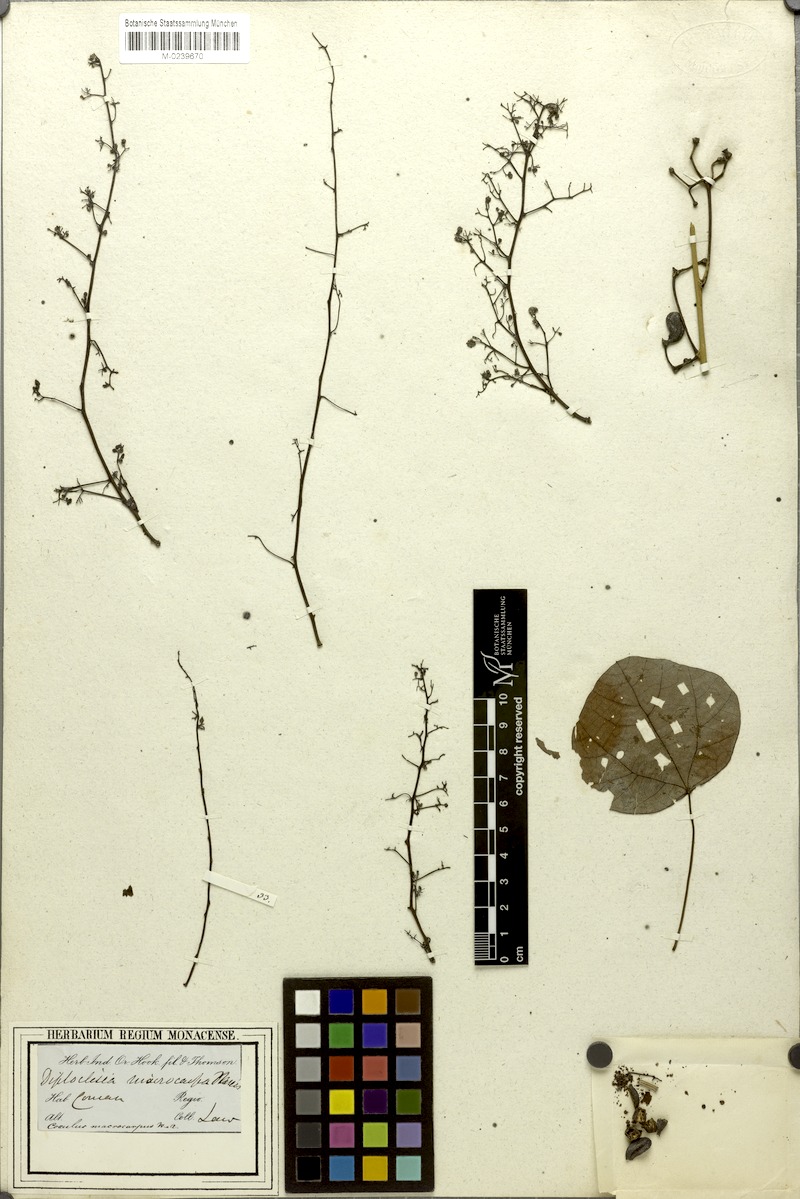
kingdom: Plantae
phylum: Tracheophyta
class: Magnoliopsida
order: Ranunculales
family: Menispermaceae
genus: Diploclisia
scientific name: Diploclisia glaucescens
